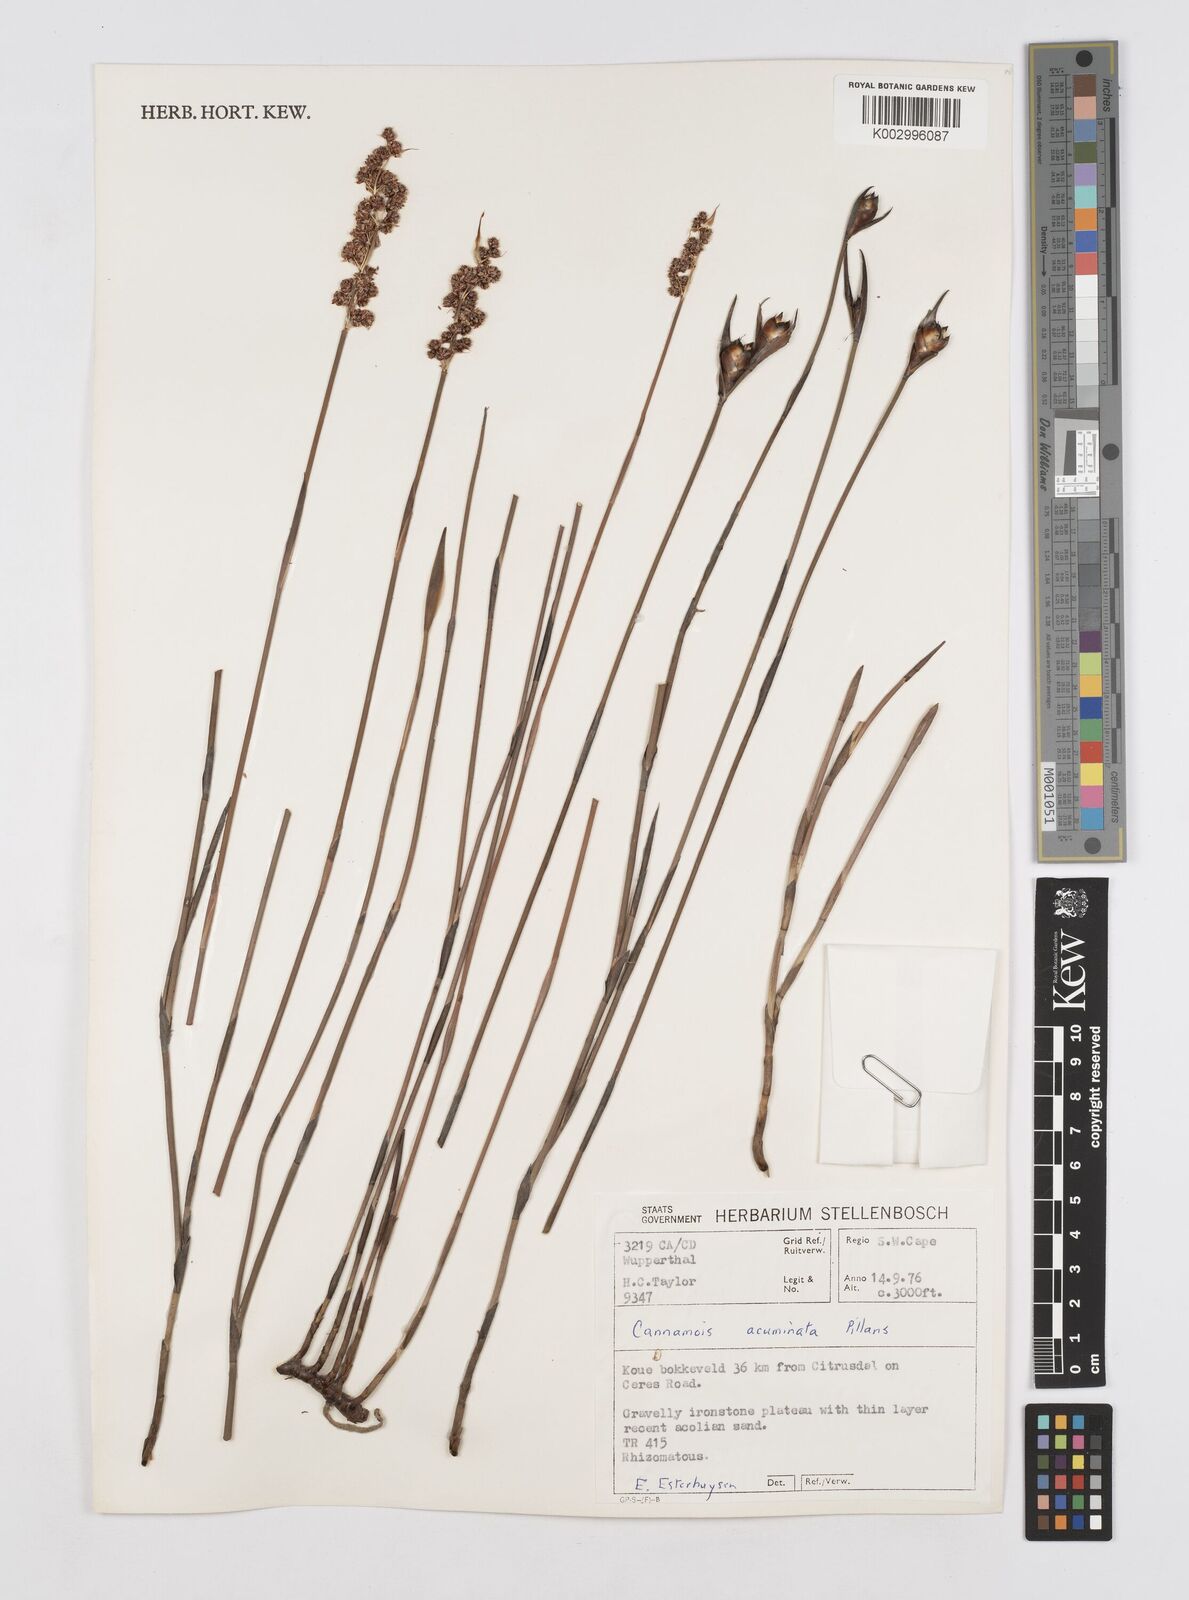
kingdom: Plantae
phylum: Tracheophyta
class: Liliopsida
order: Poales
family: Restionaceae
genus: Cannomois
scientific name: Cannomois parviflora
